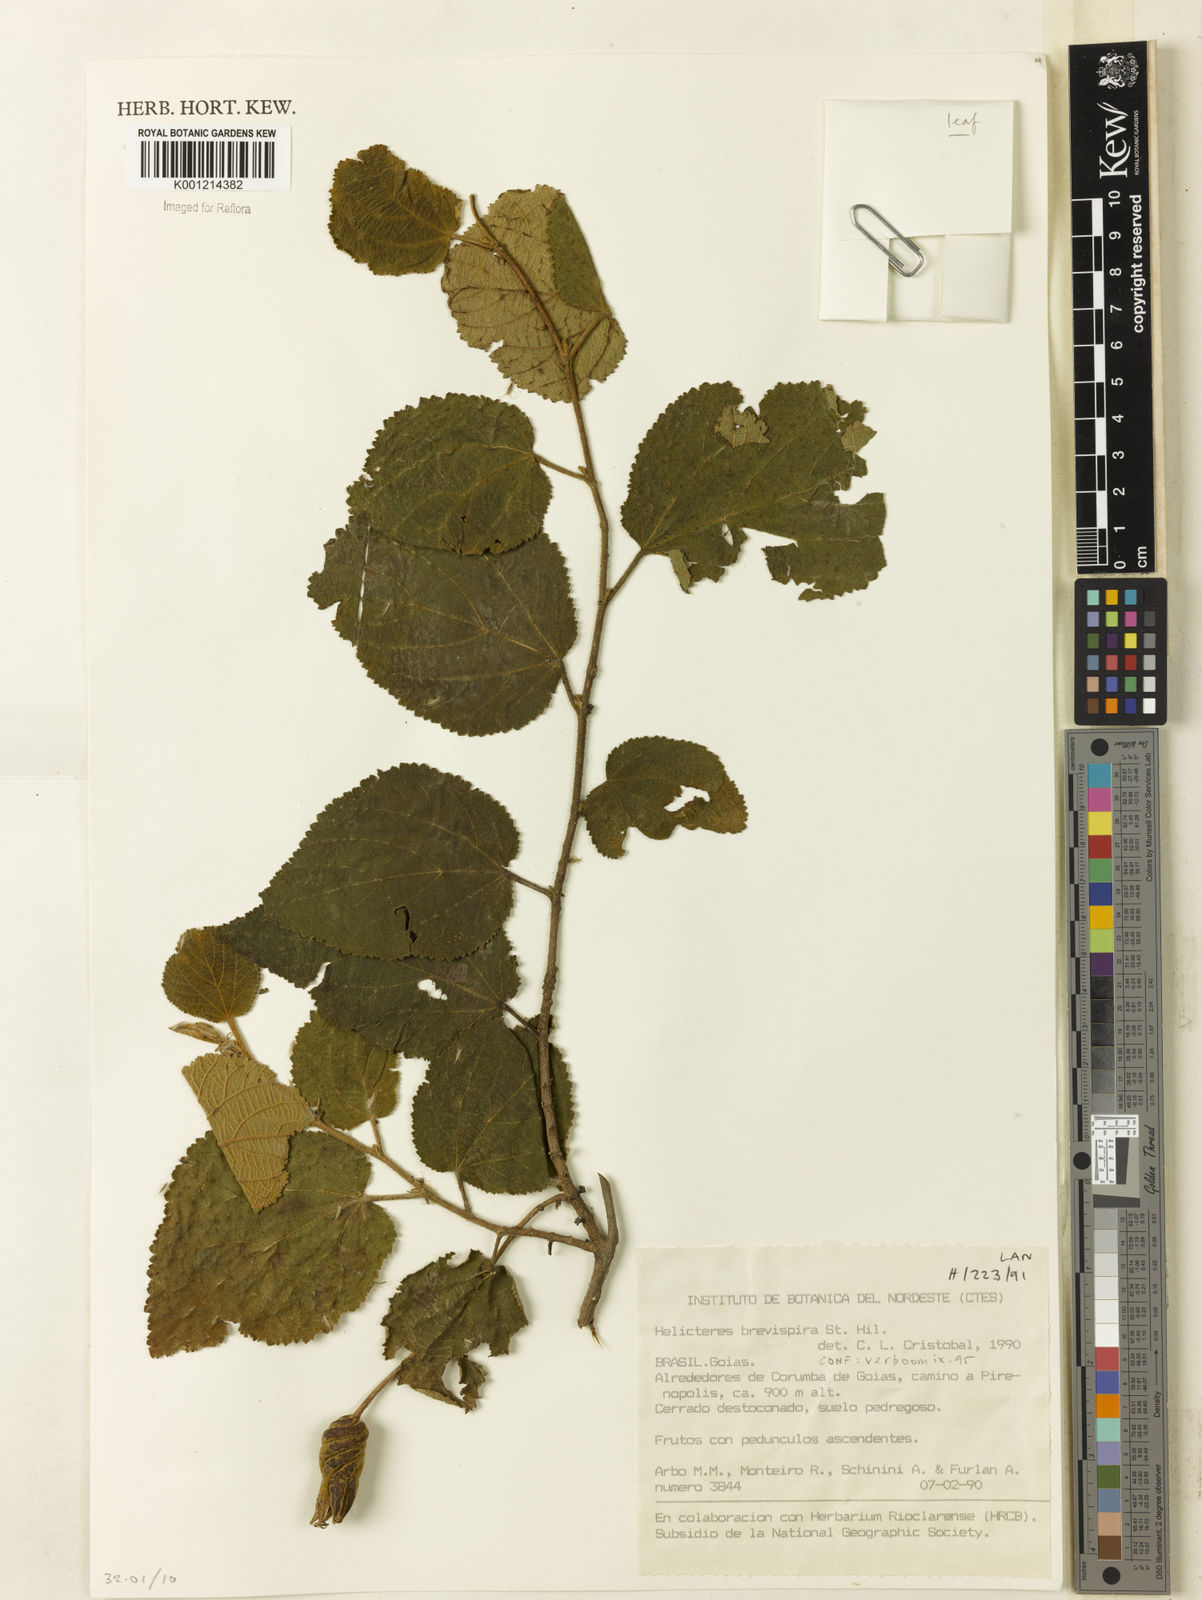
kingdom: Plantae
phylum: Tracheophyta
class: Magnoliopsida
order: Malvales
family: Malvaceae
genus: Helicteres
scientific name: Helicteres
